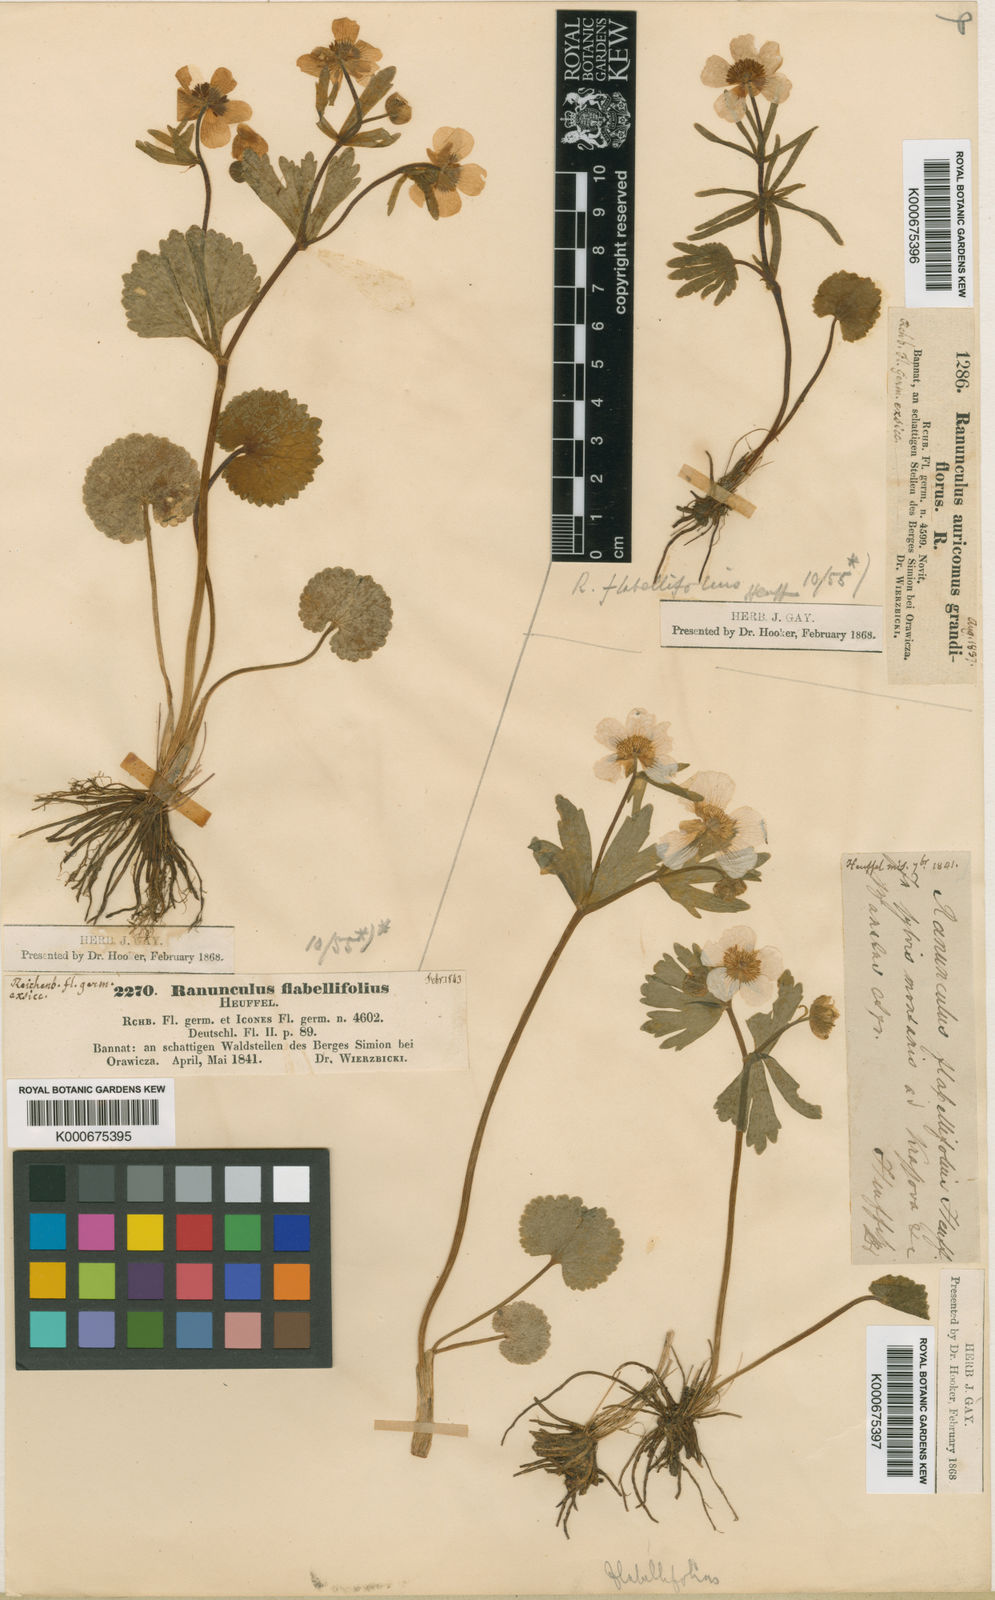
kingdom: Plantae
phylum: Tracheophyta
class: Magnoliopsida
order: Ranunculales
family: Ranunculaceae
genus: Ranunculus
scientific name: Ranunculus flabellifolius
